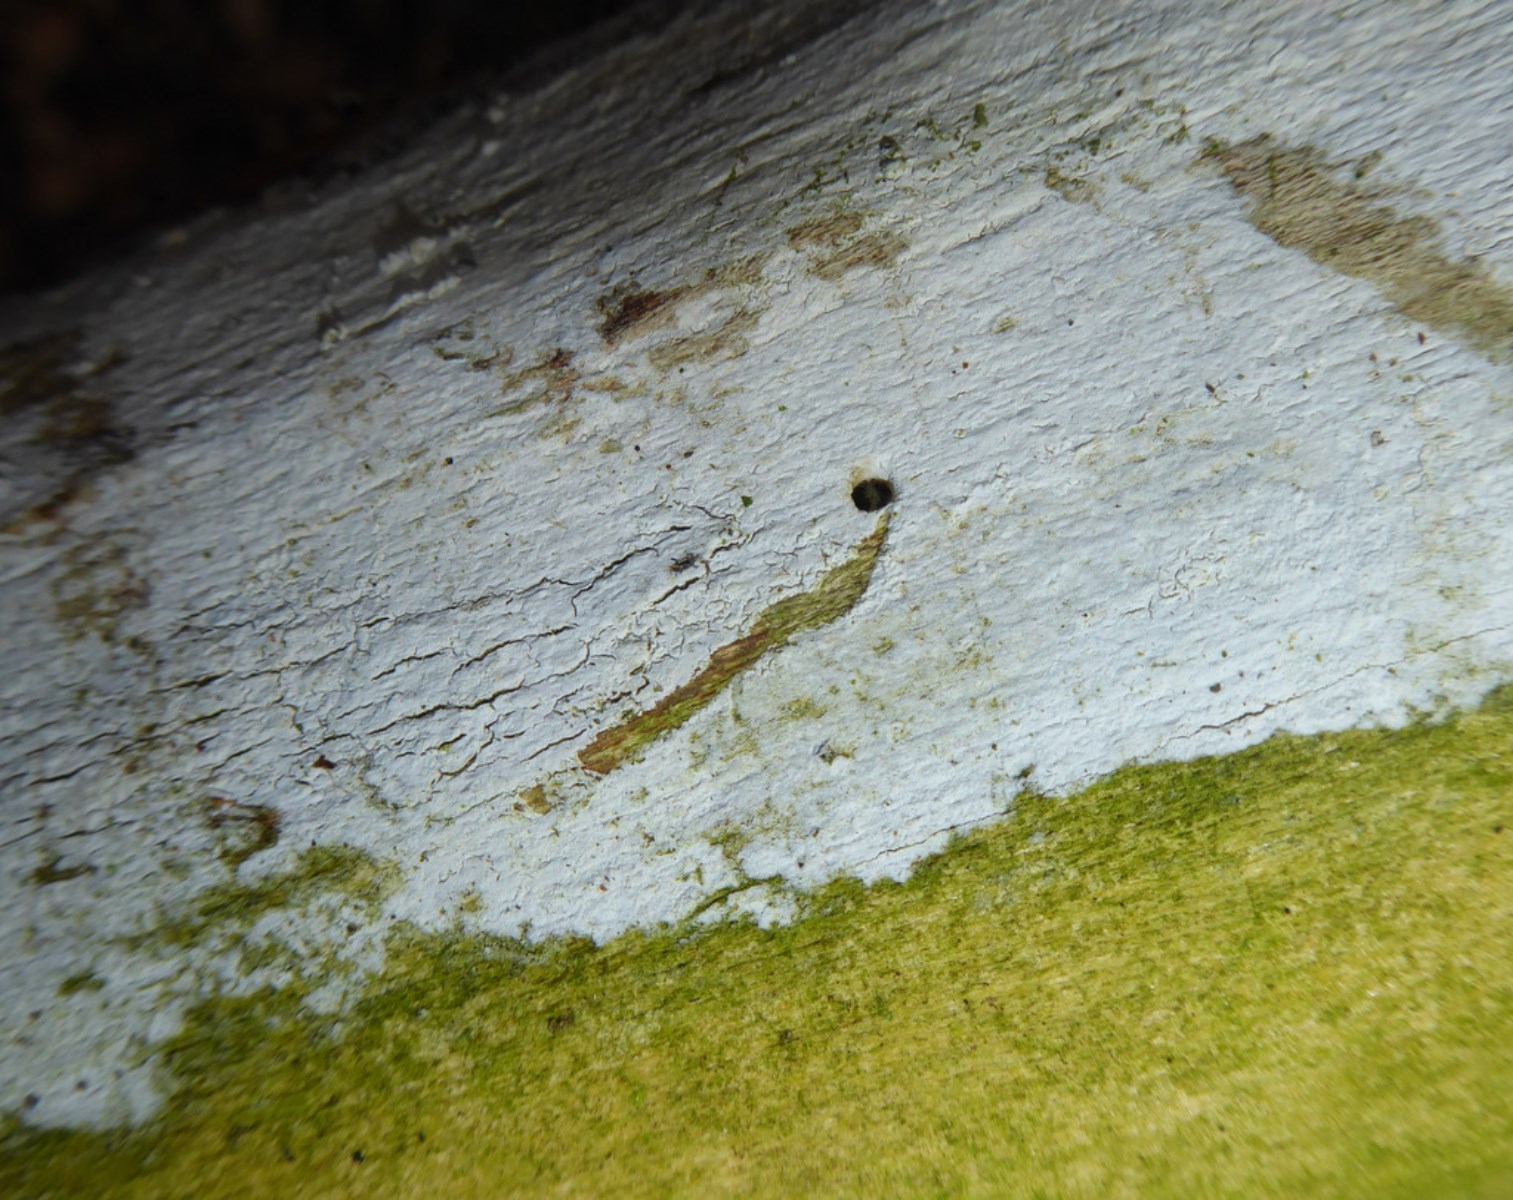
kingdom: Fungi
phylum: Basidiomycota
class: Agaricomycetes
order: Corticiales
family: Corticiaceae
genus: Lyomyces
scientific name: Lyomyces sambuci
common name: almindelig hyldehinde
